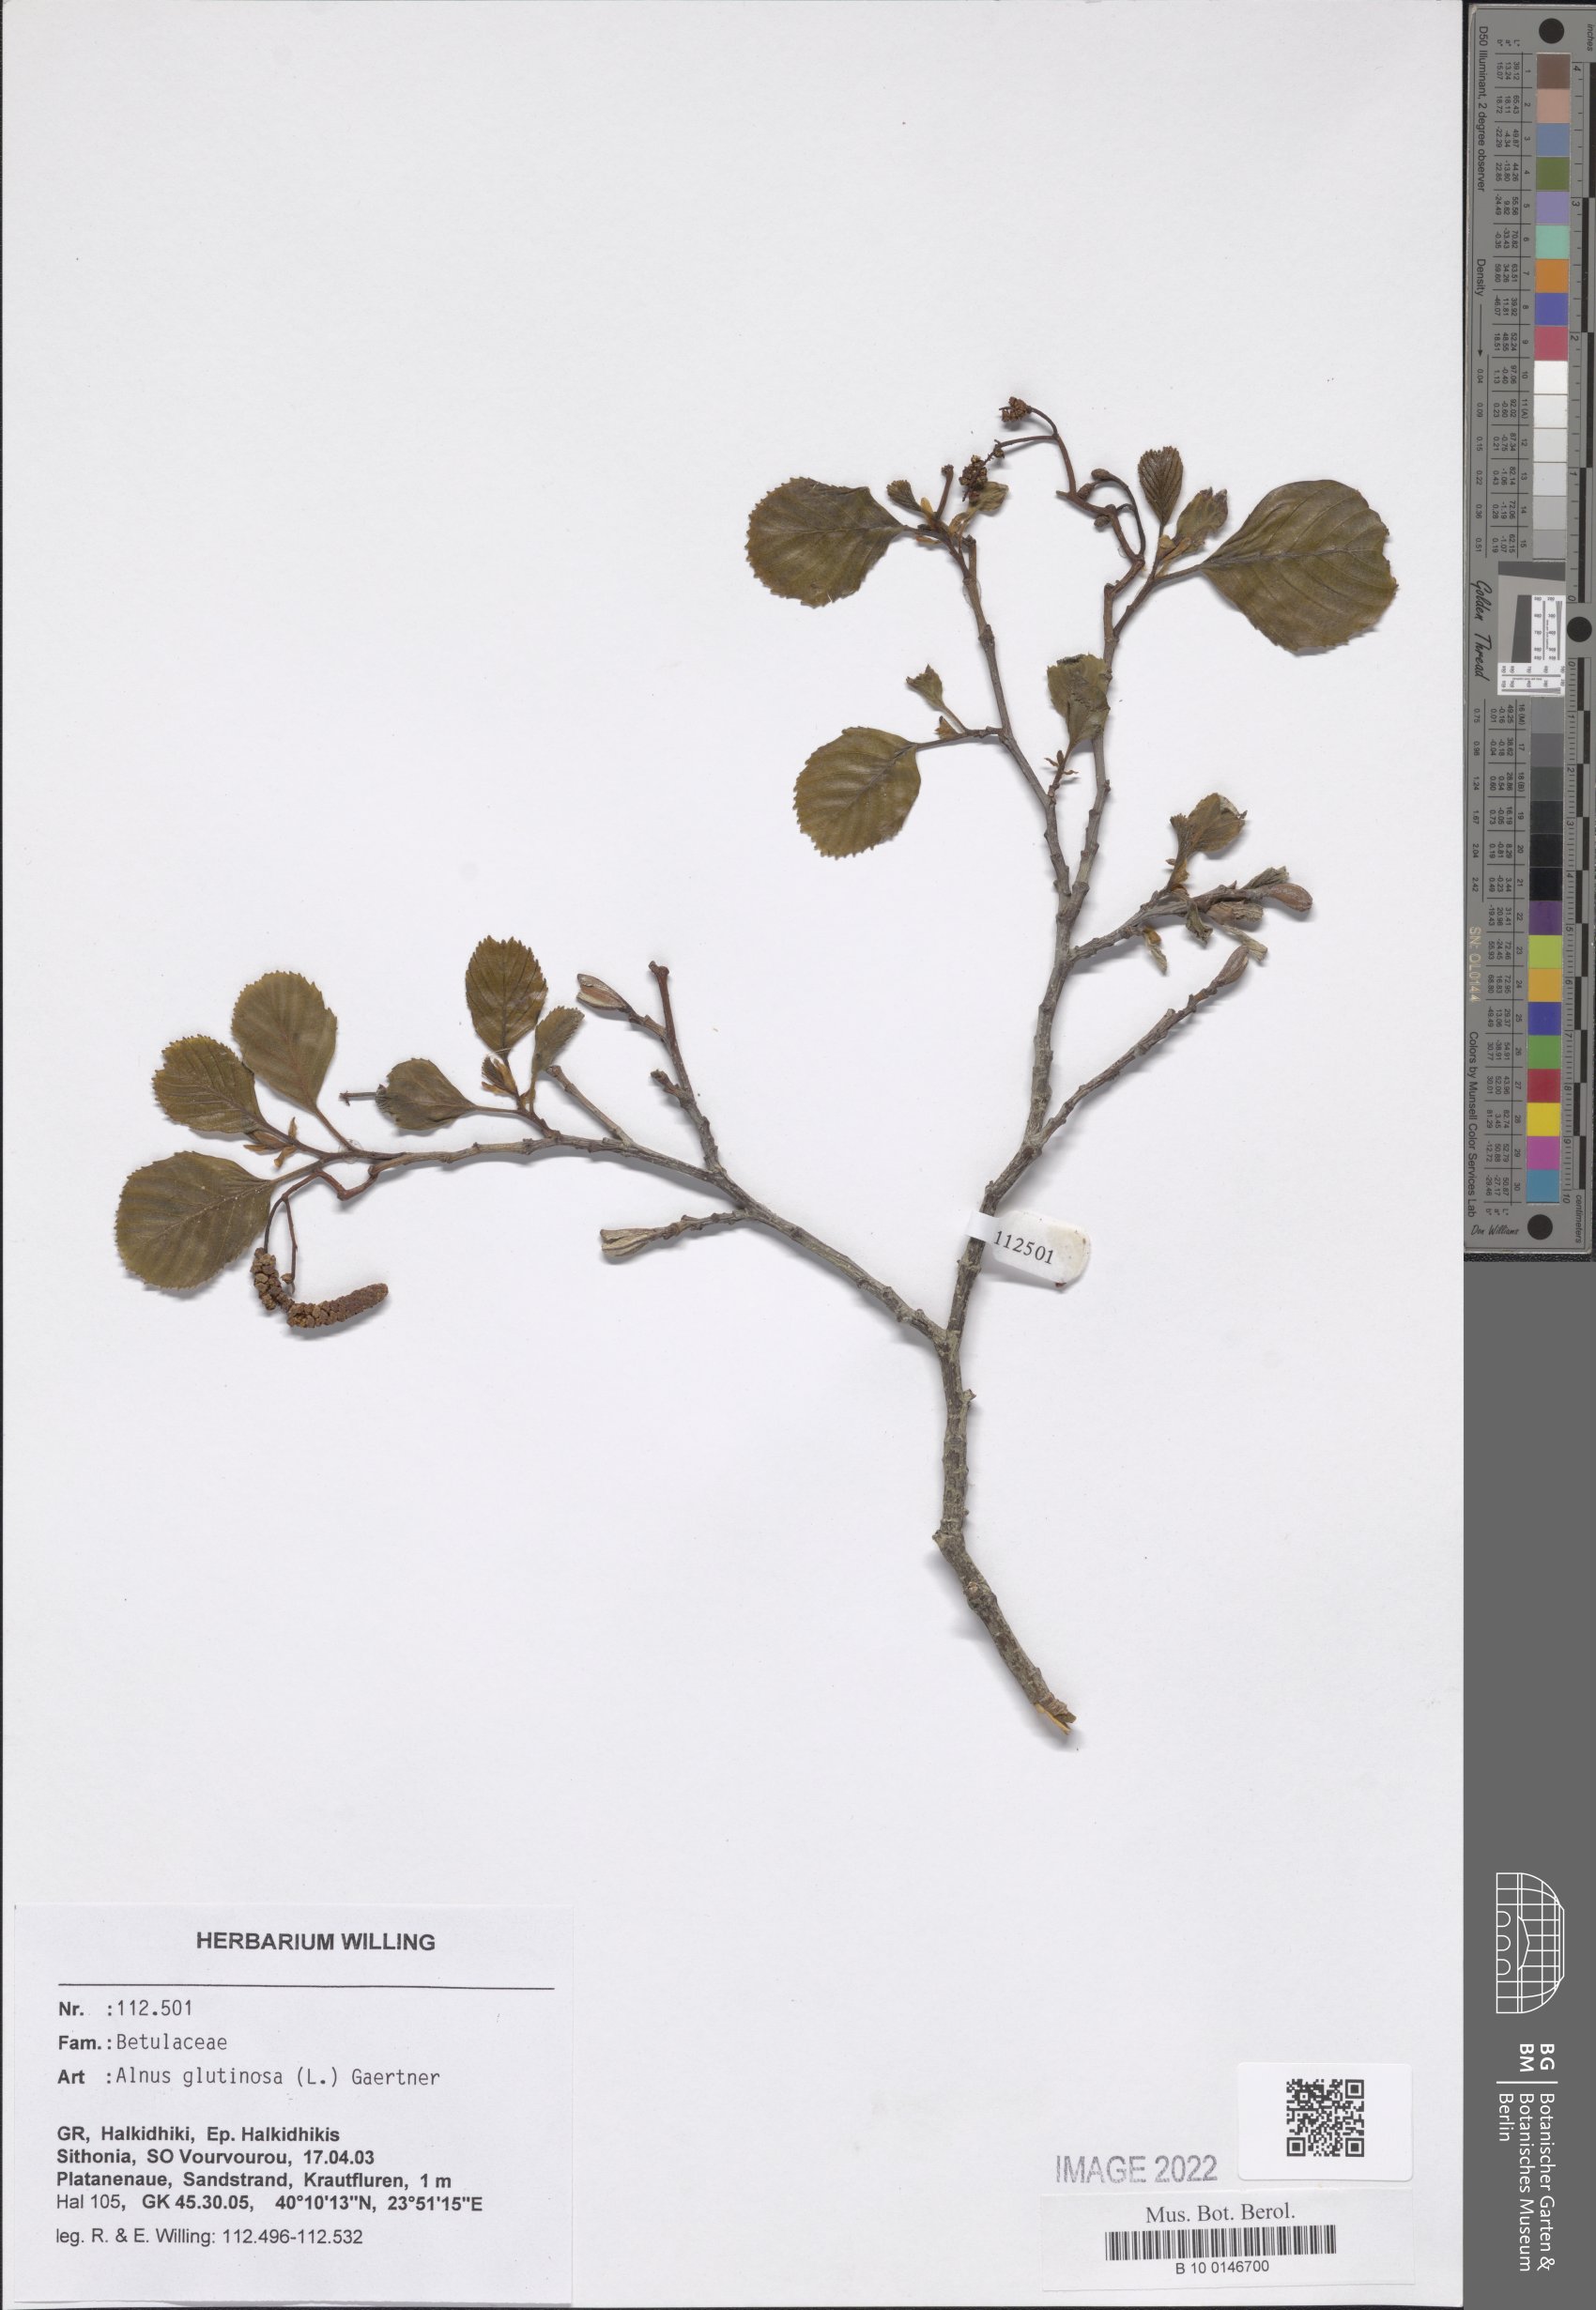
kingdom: Plantae
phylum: Tracheophyta
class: Magnoliopsida
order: Fagales
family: Betulaceae
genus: Alnus
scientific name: Alnus glutinosa
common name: Black alder
